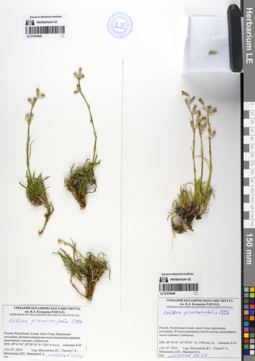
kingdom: Plantae
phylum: Tracheophyta
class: Magnoliopsida
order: Caryophyllales
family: Caryophyllaceae
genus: Silene
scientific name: Silene graminifolia
